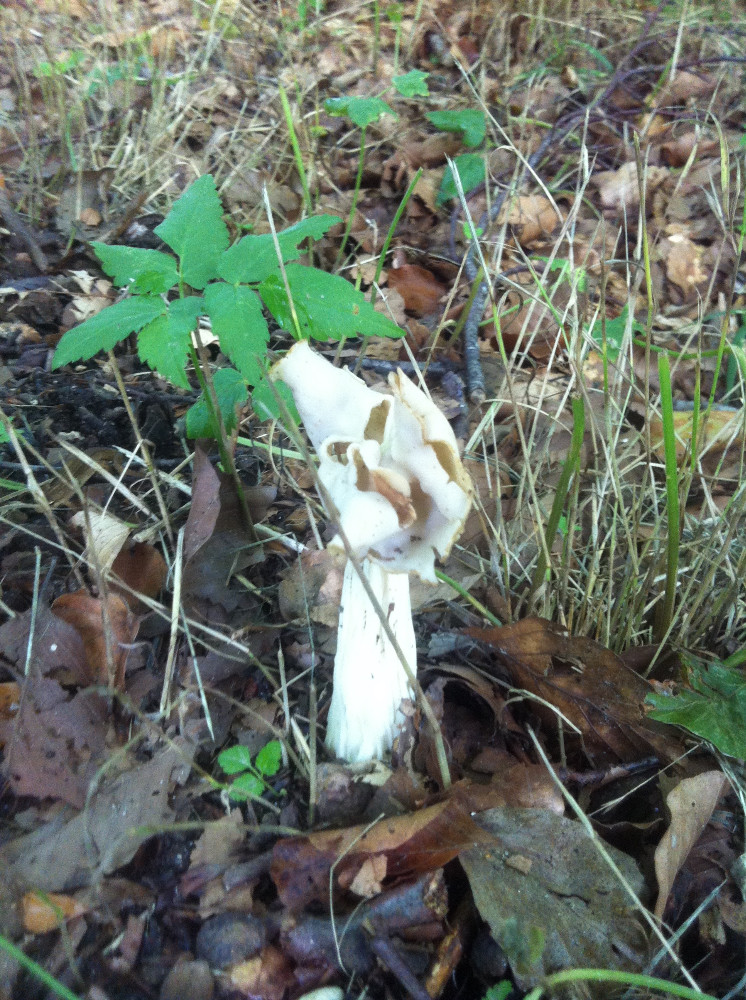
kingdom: Fungi
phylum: Ascomycota
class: Pezizomycetes
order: Pezizales
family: Helvellaceae
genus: Helvella
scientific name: Helvella crispa
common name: kruset foldhat
